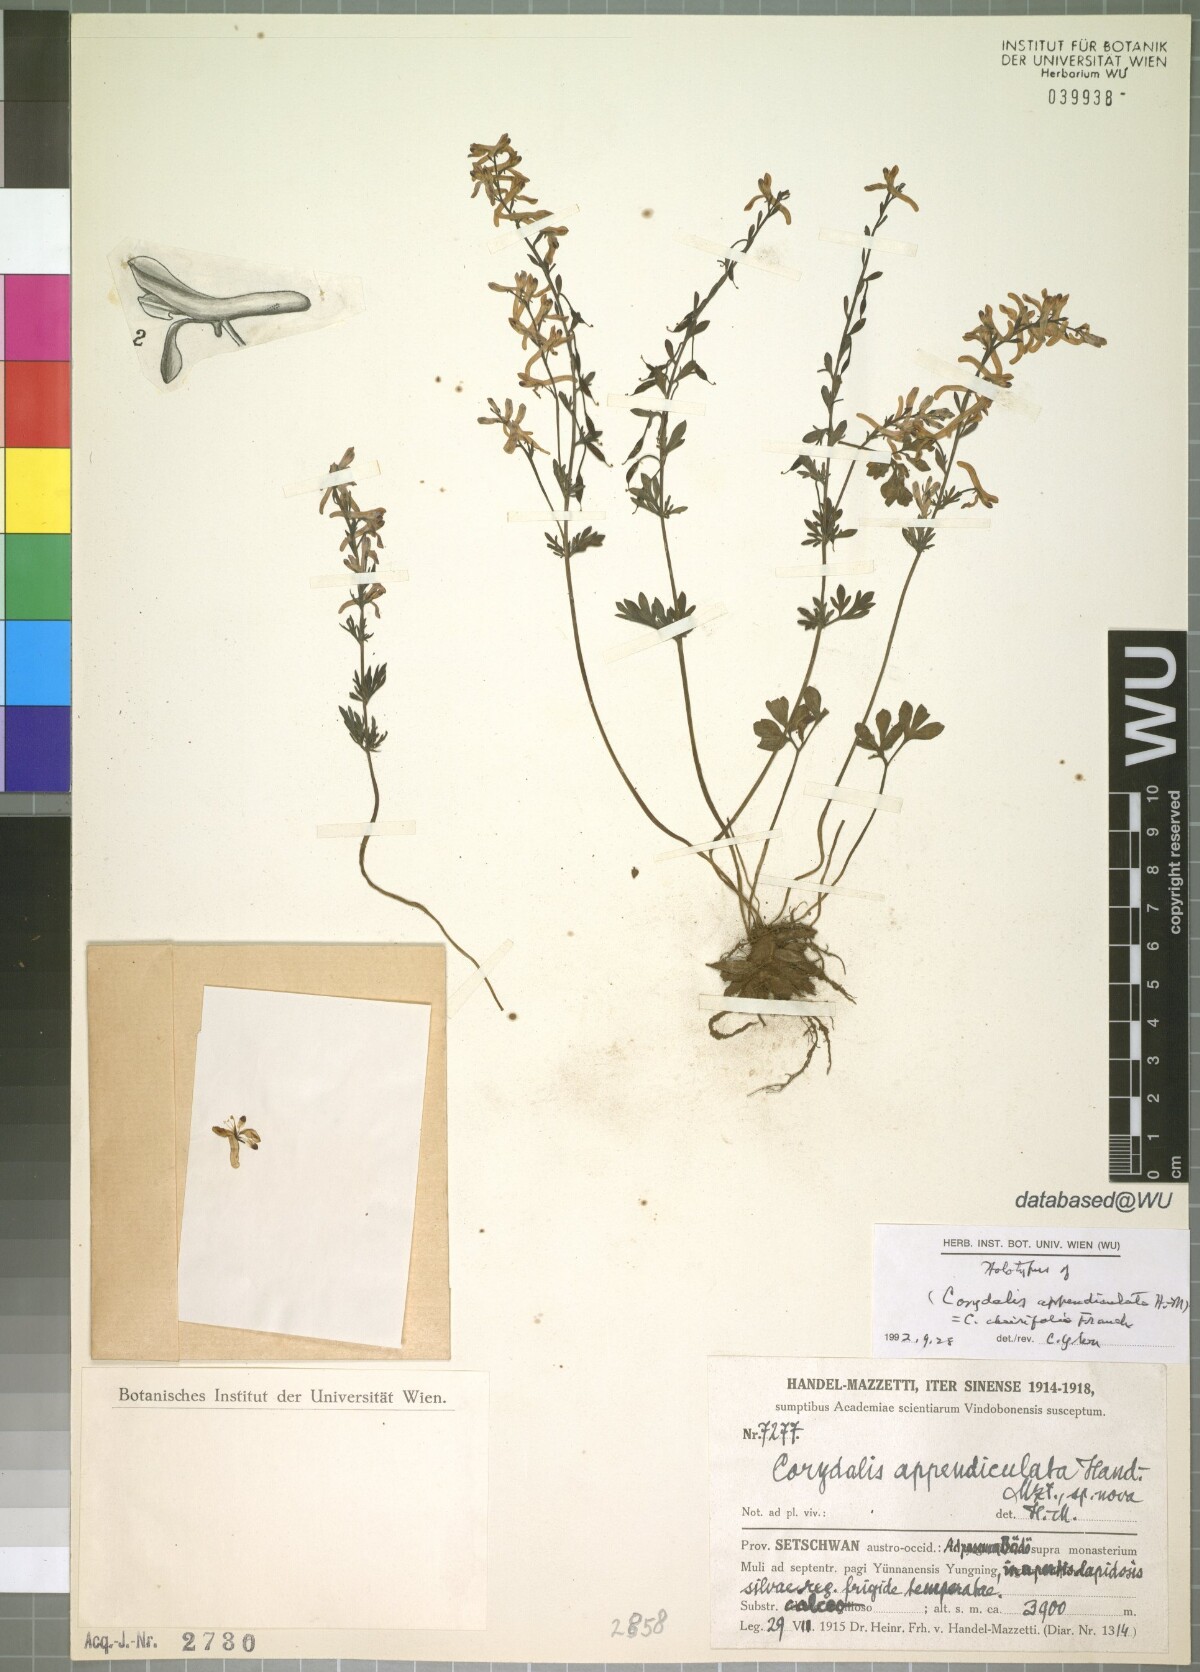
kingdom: Plantae
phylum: Tracheophyta
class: Magnoliopsida
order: Ranunculales
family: Papaveraceae
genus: Corydalis
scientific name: Corydalis appendiculata
